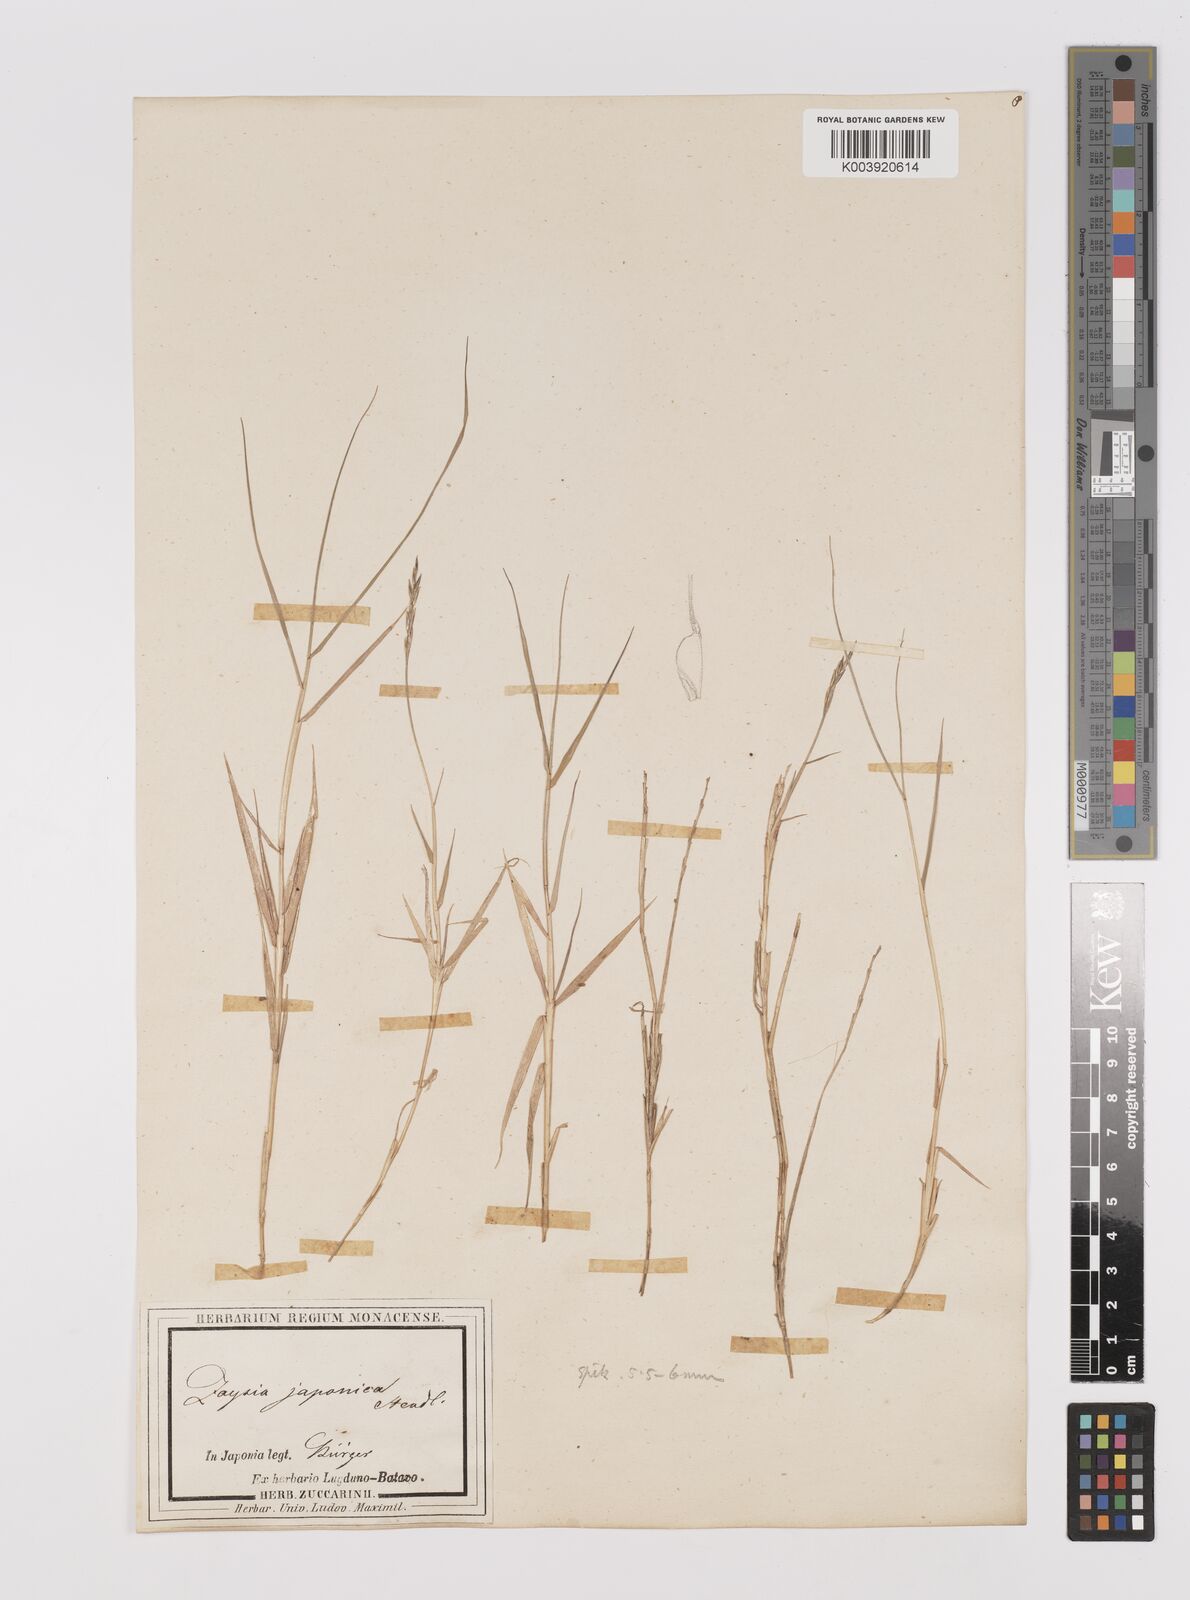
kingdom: Plantae
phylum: Tracheophyta
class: Liliopsida
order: Poales
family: Poaceae
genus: Zoysia
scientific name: Zoysia sinica
